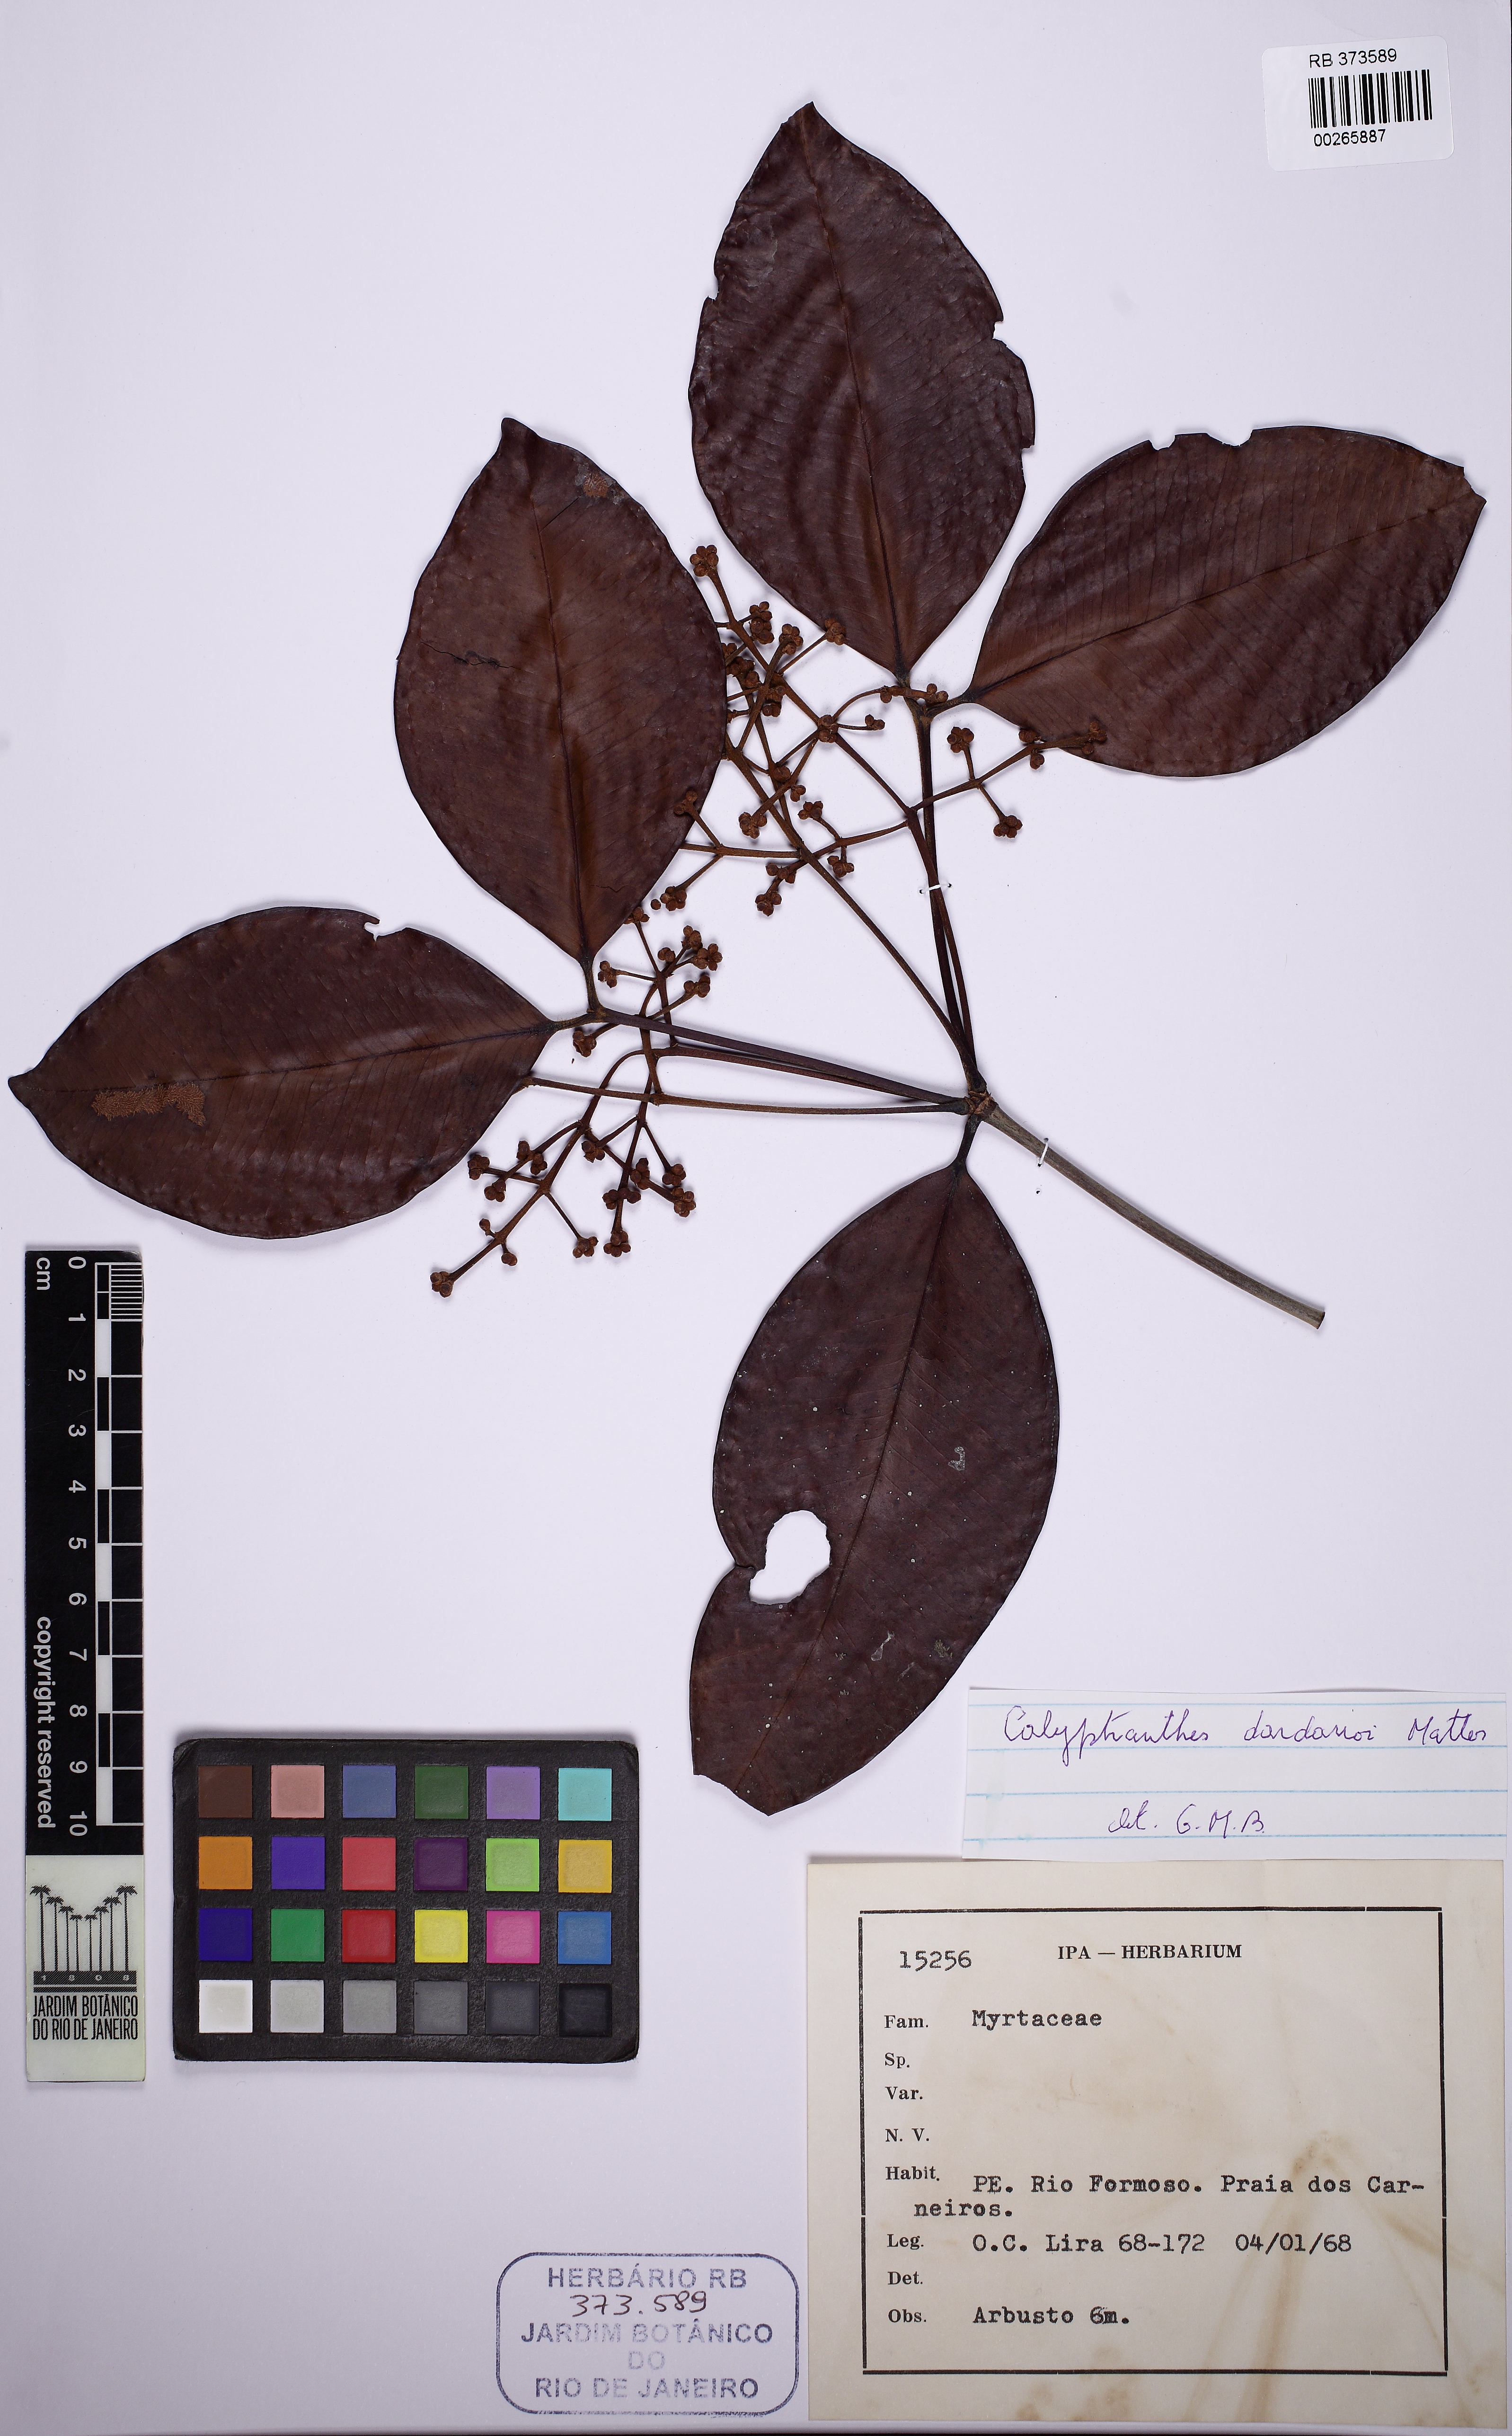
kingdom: Plantae
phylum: Tracheophyta
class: Magnoliopsida
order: Myrtales
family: Myrtaceae
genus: Calyptranthes
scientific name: Calyptranthes dardanoi
